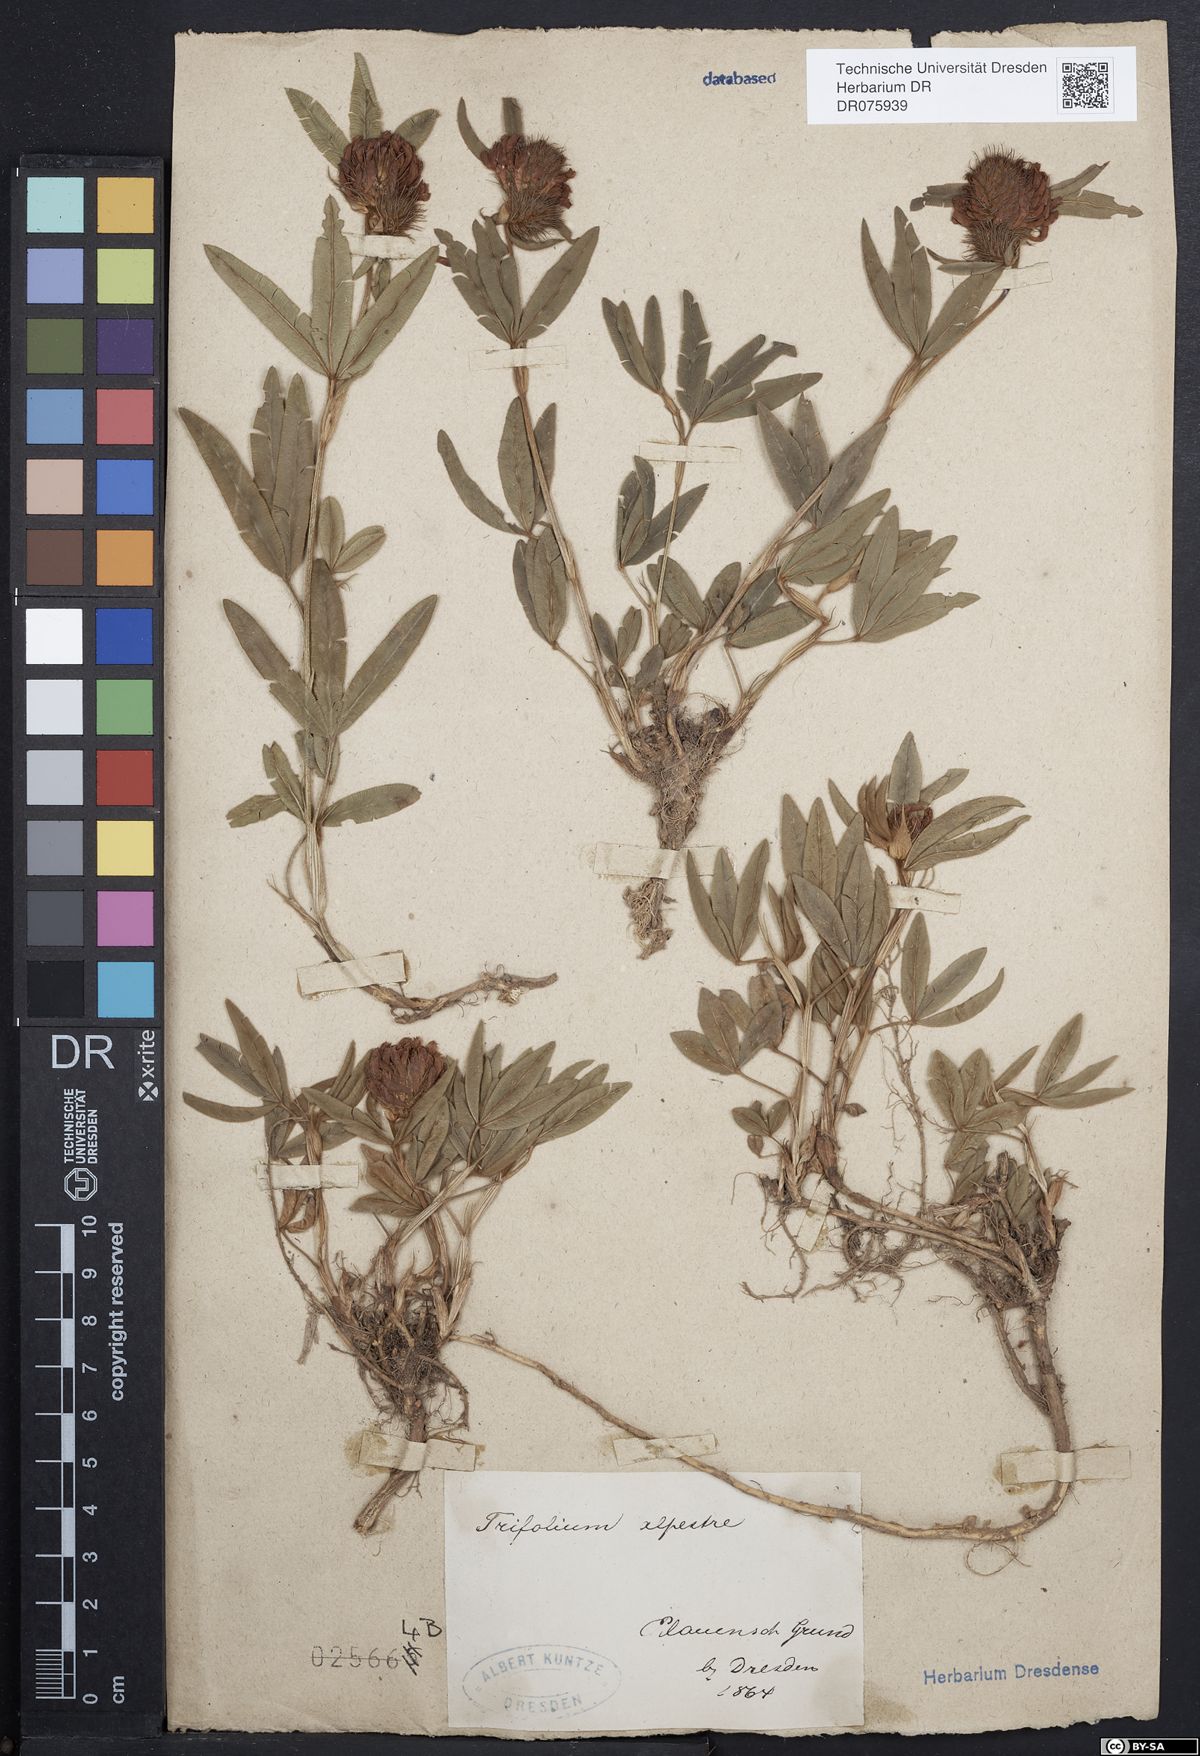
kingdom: Plantae
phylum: Tracheophyta
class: Magnoliopsida
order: Fabales
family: Fabaceae
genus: Trifolium
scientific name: Trifolium alpestre
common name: Owl-head clover
